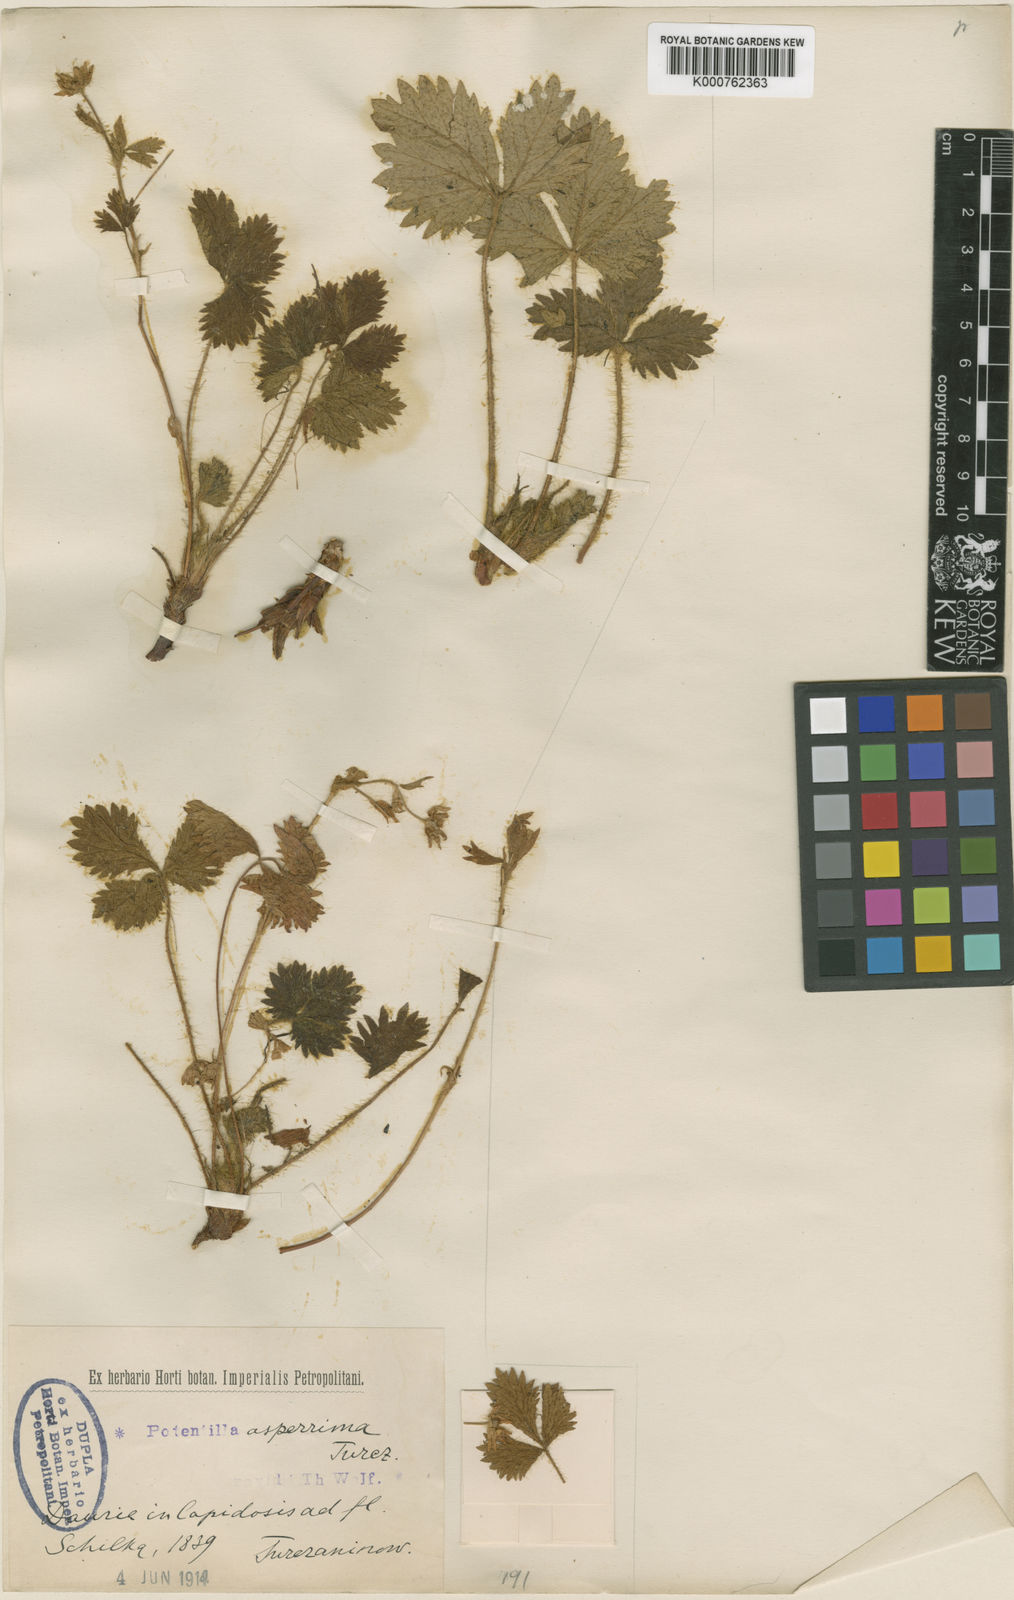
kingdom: Plantae
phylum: Tracheophyta
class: Magnoliopsida
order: Rosales
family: Rosaceae
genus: Potentilla
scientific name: Potentilla asperrima
